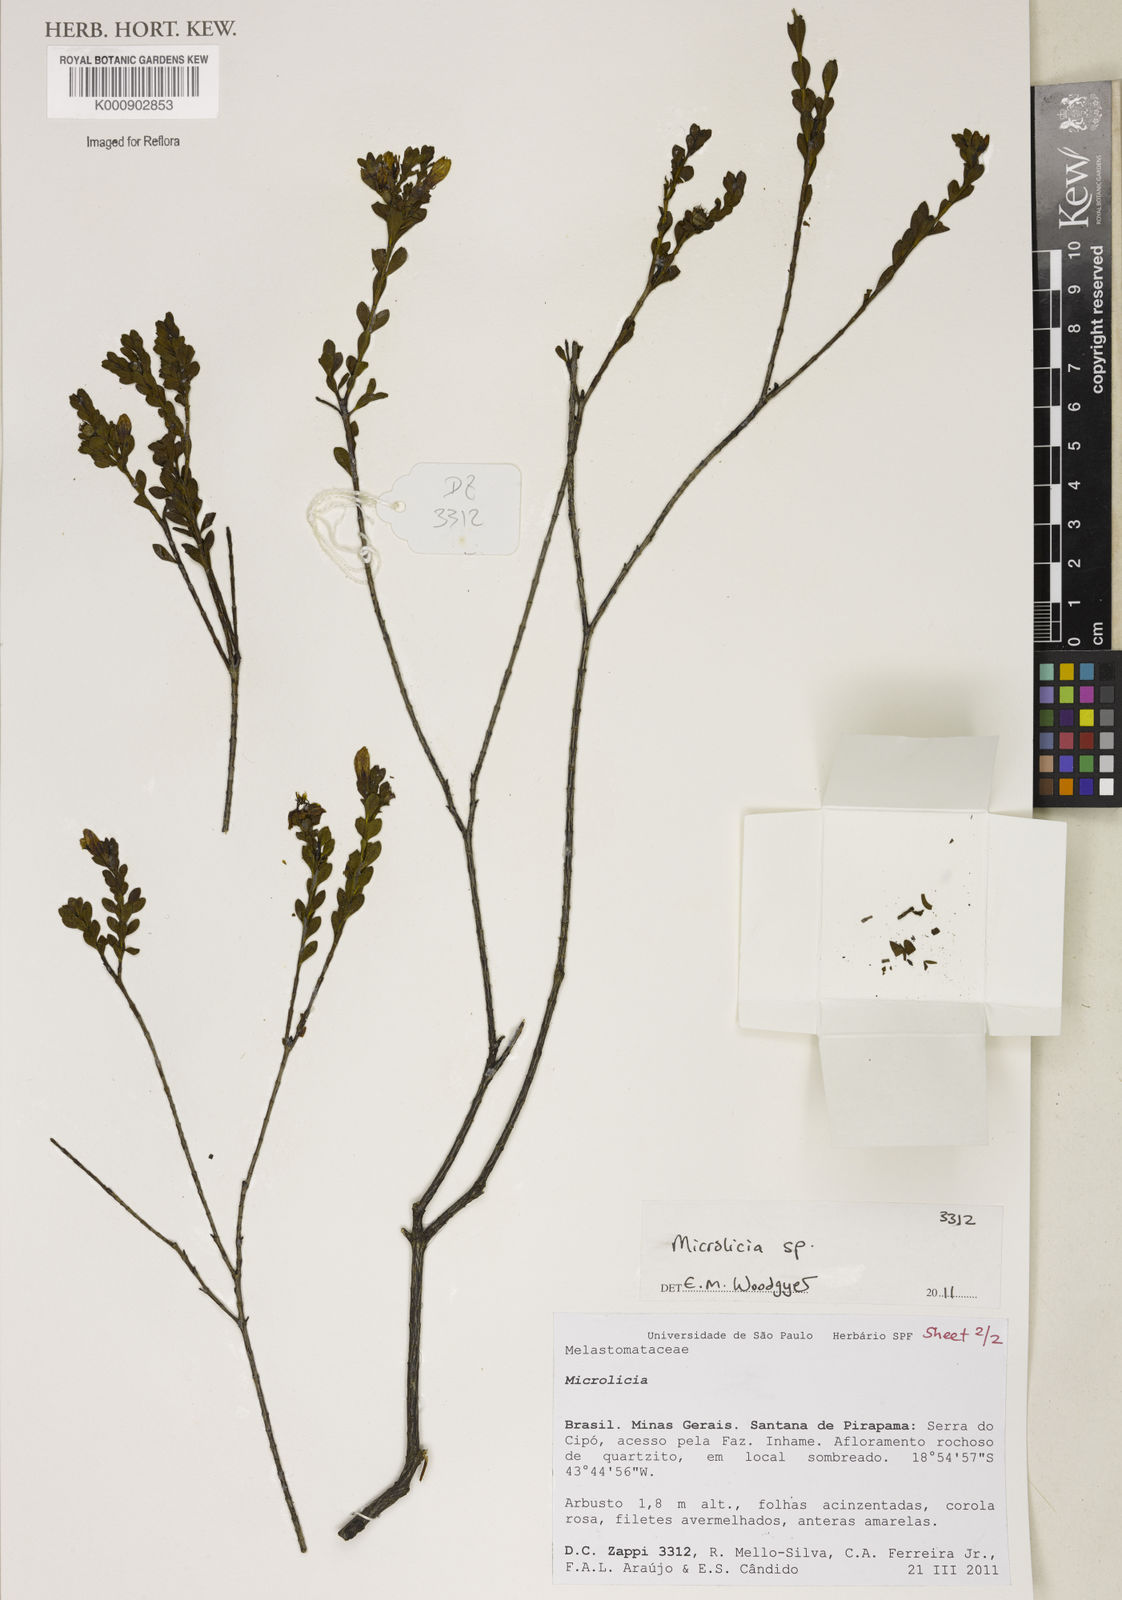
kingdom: Plantae
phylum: Tracheophyta
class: Magnoliopsida
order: Myrtales
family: Melastomataceae
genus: Microlicia
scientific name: Microlicia
